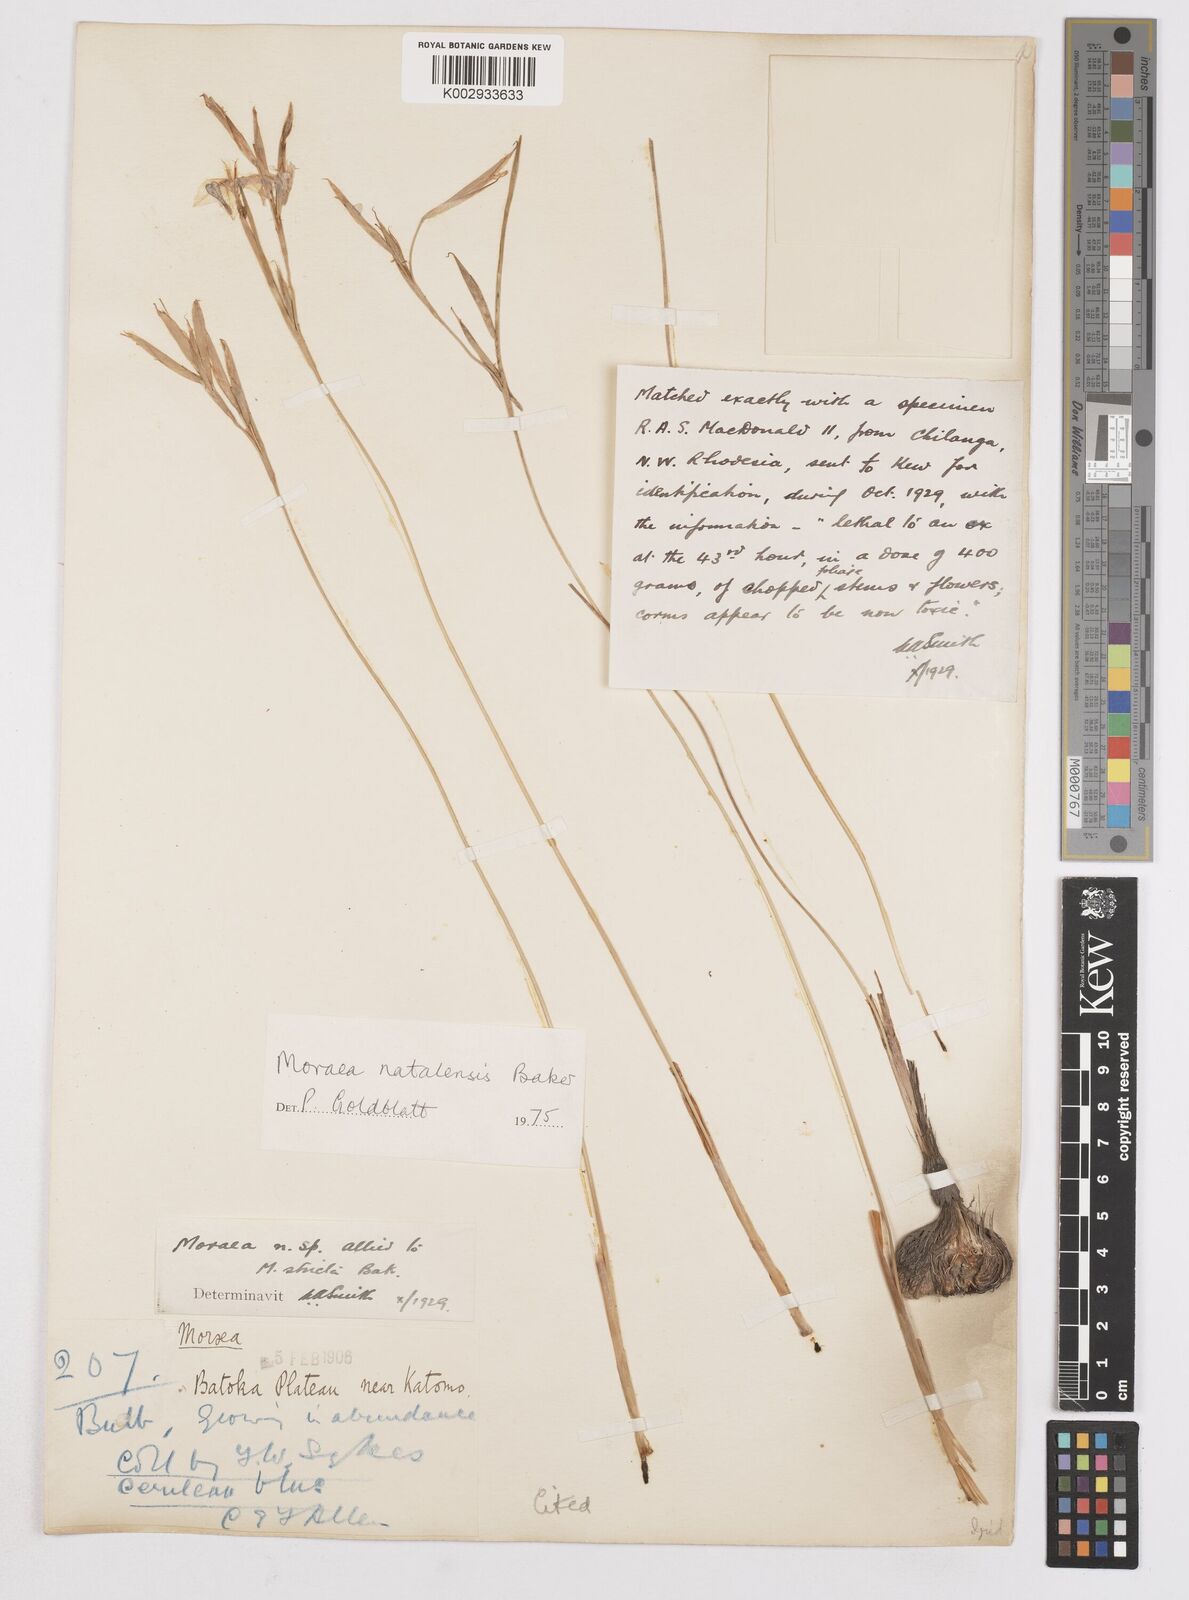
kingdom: Plantae
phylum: Tracheophyta
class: Liliopsida
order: Asparagales
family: Iridaceae
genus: Moraea
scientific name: Moraea natalensis
